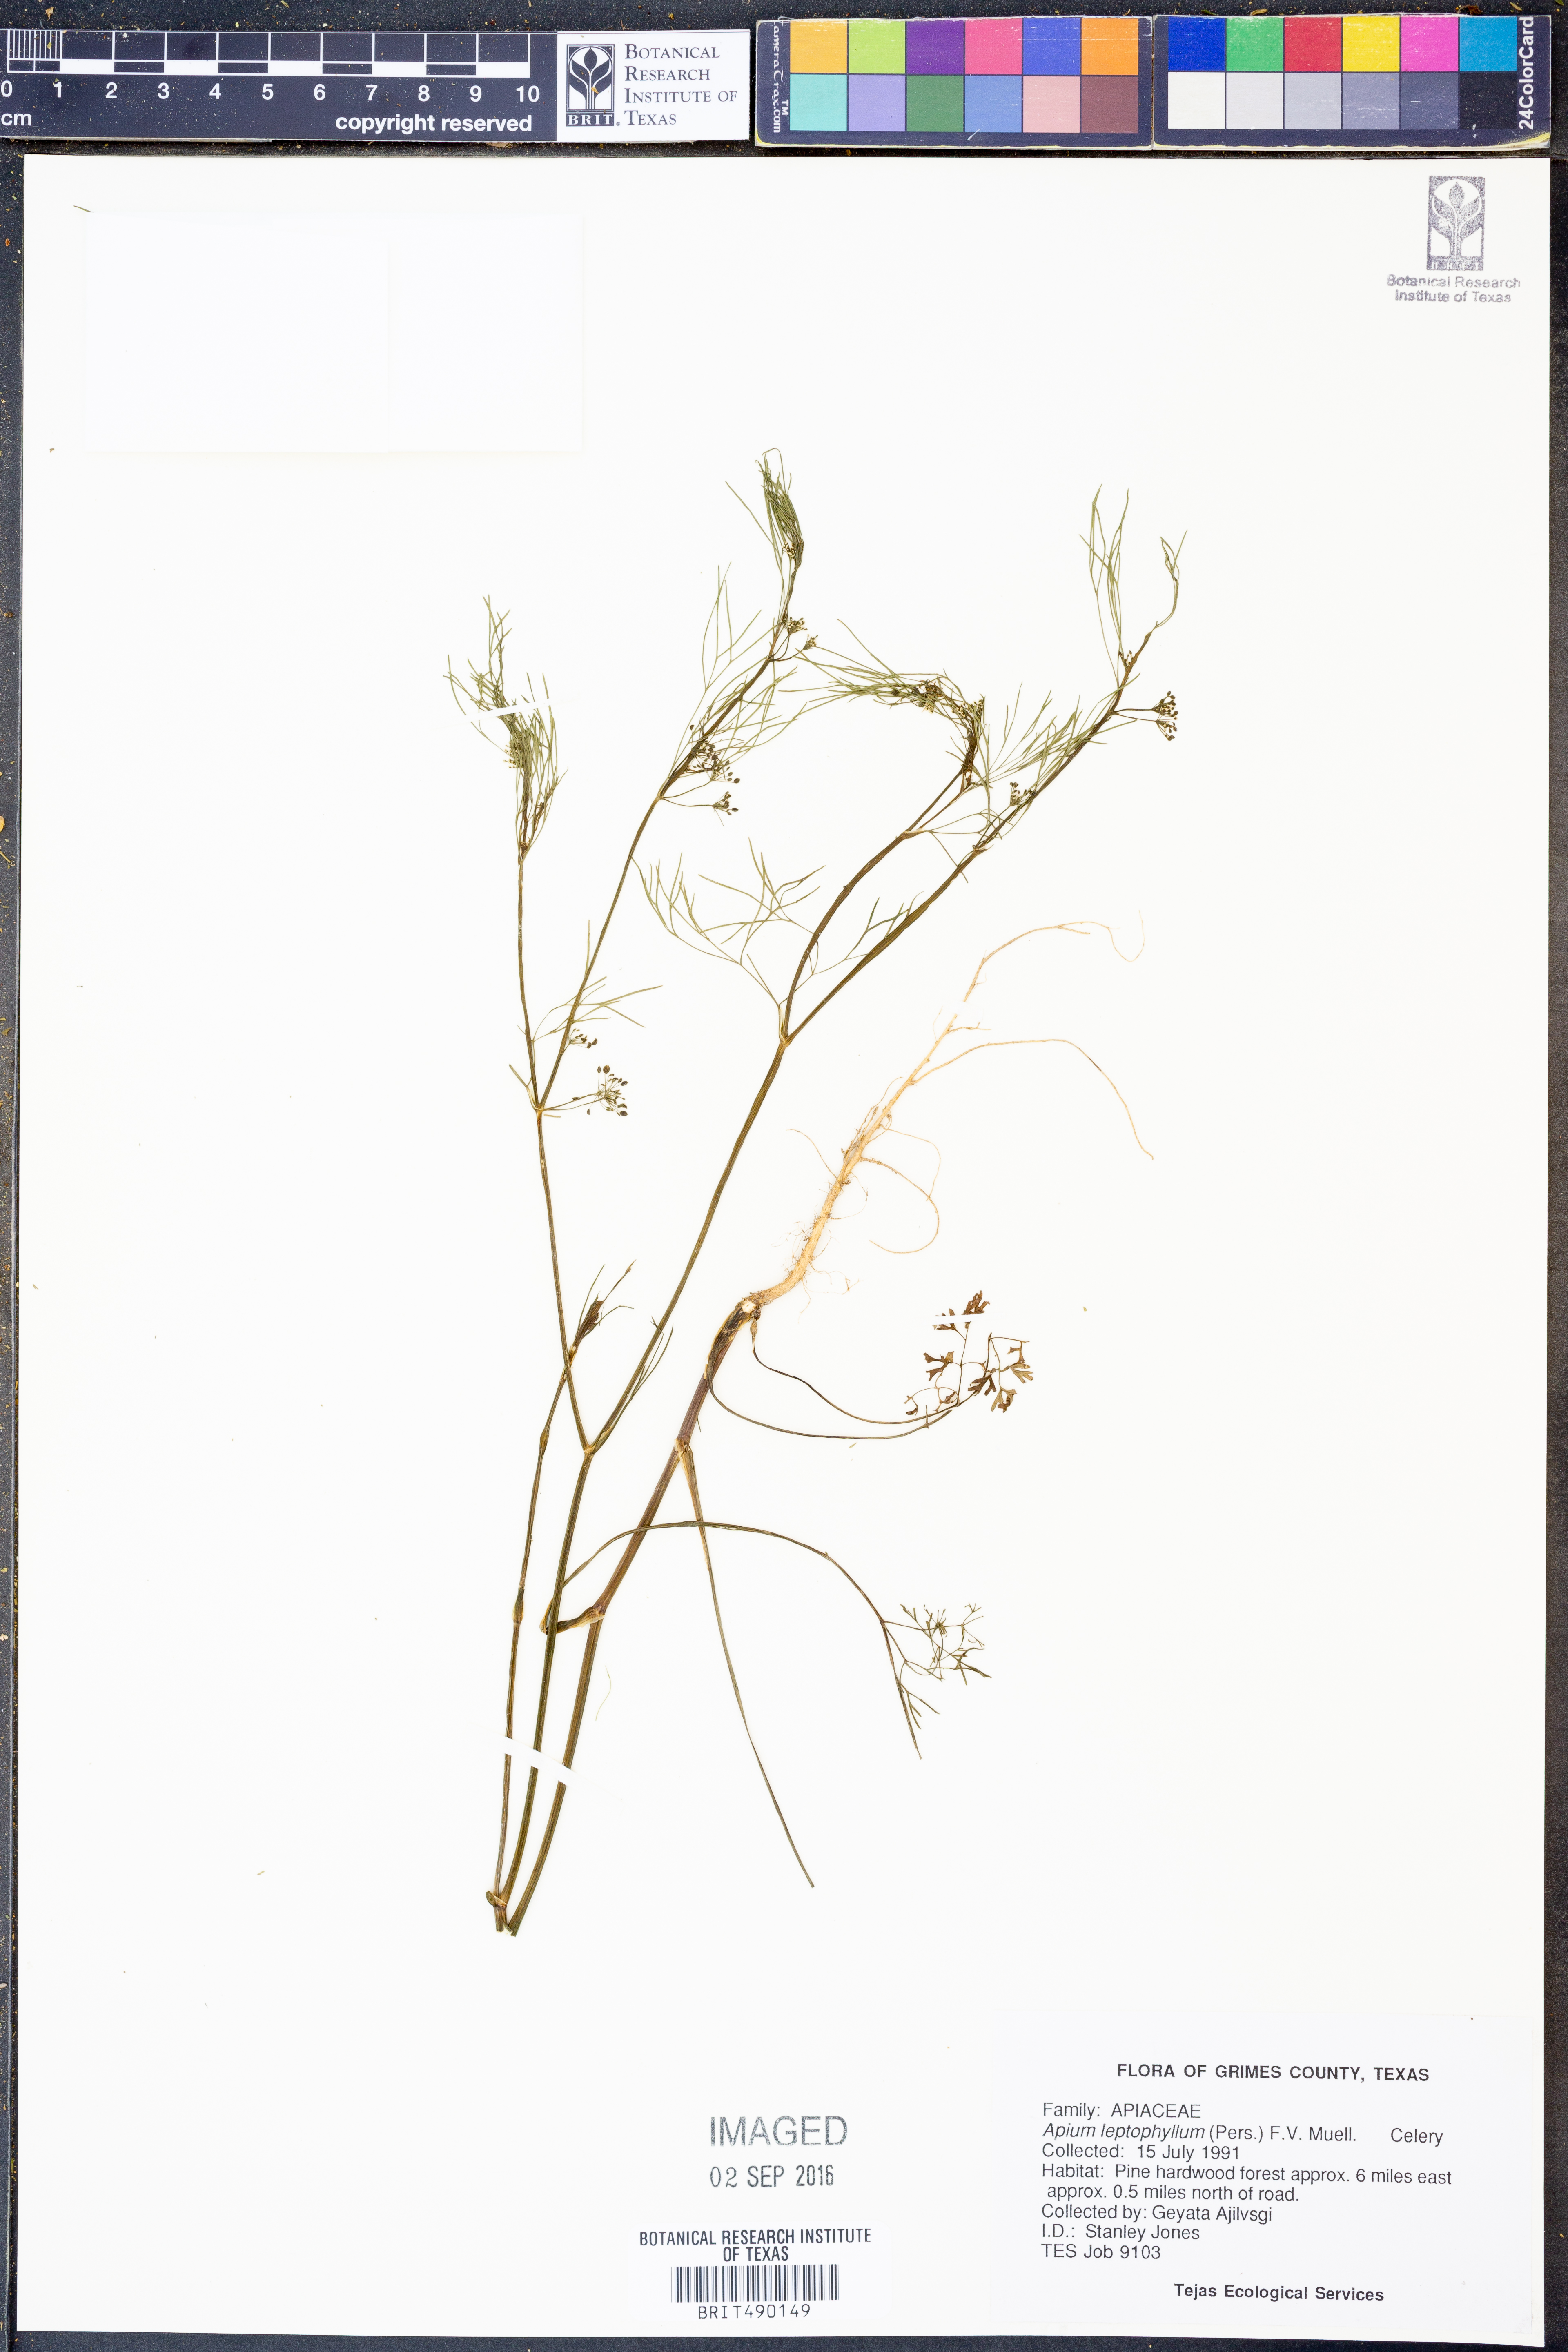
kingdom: Plantae
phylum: Tracheophyta
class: Magnoliopsida
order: Apiales
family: Apiaceae
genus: Cyclospermum
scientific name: Cyclospermum leptophyllum
